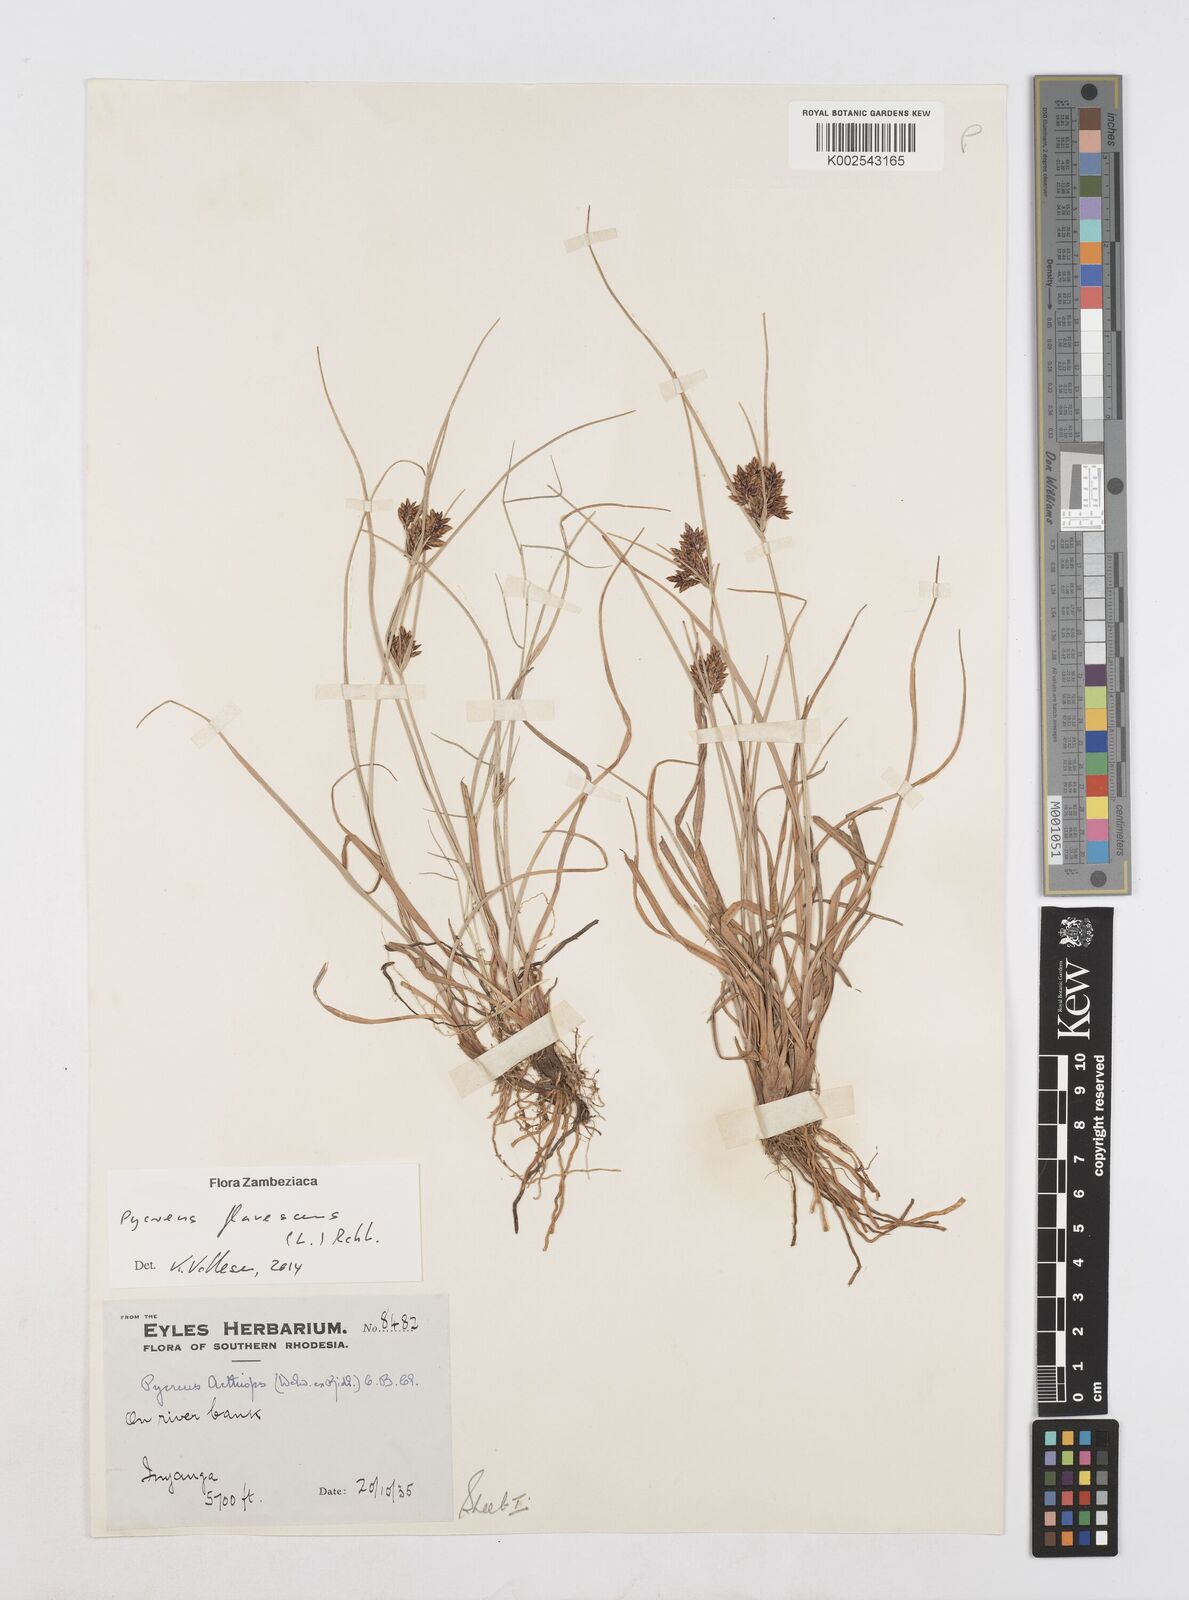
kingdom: Plantae
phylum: Tracheophyta
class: Liliopsida
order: Poales
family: Cyperaceae
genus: Cyperus
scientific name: Cyperus flavescens
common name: Yellow galingale
